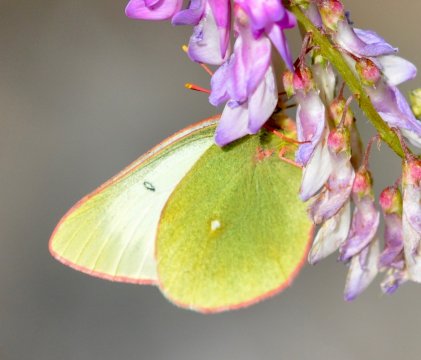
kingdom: Animalia
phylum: Arthropoda
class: Insecta
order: Lepidoptera
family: Pieridae
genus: Colias
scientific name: Colias palaeno
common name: Chippewa Sulphur
